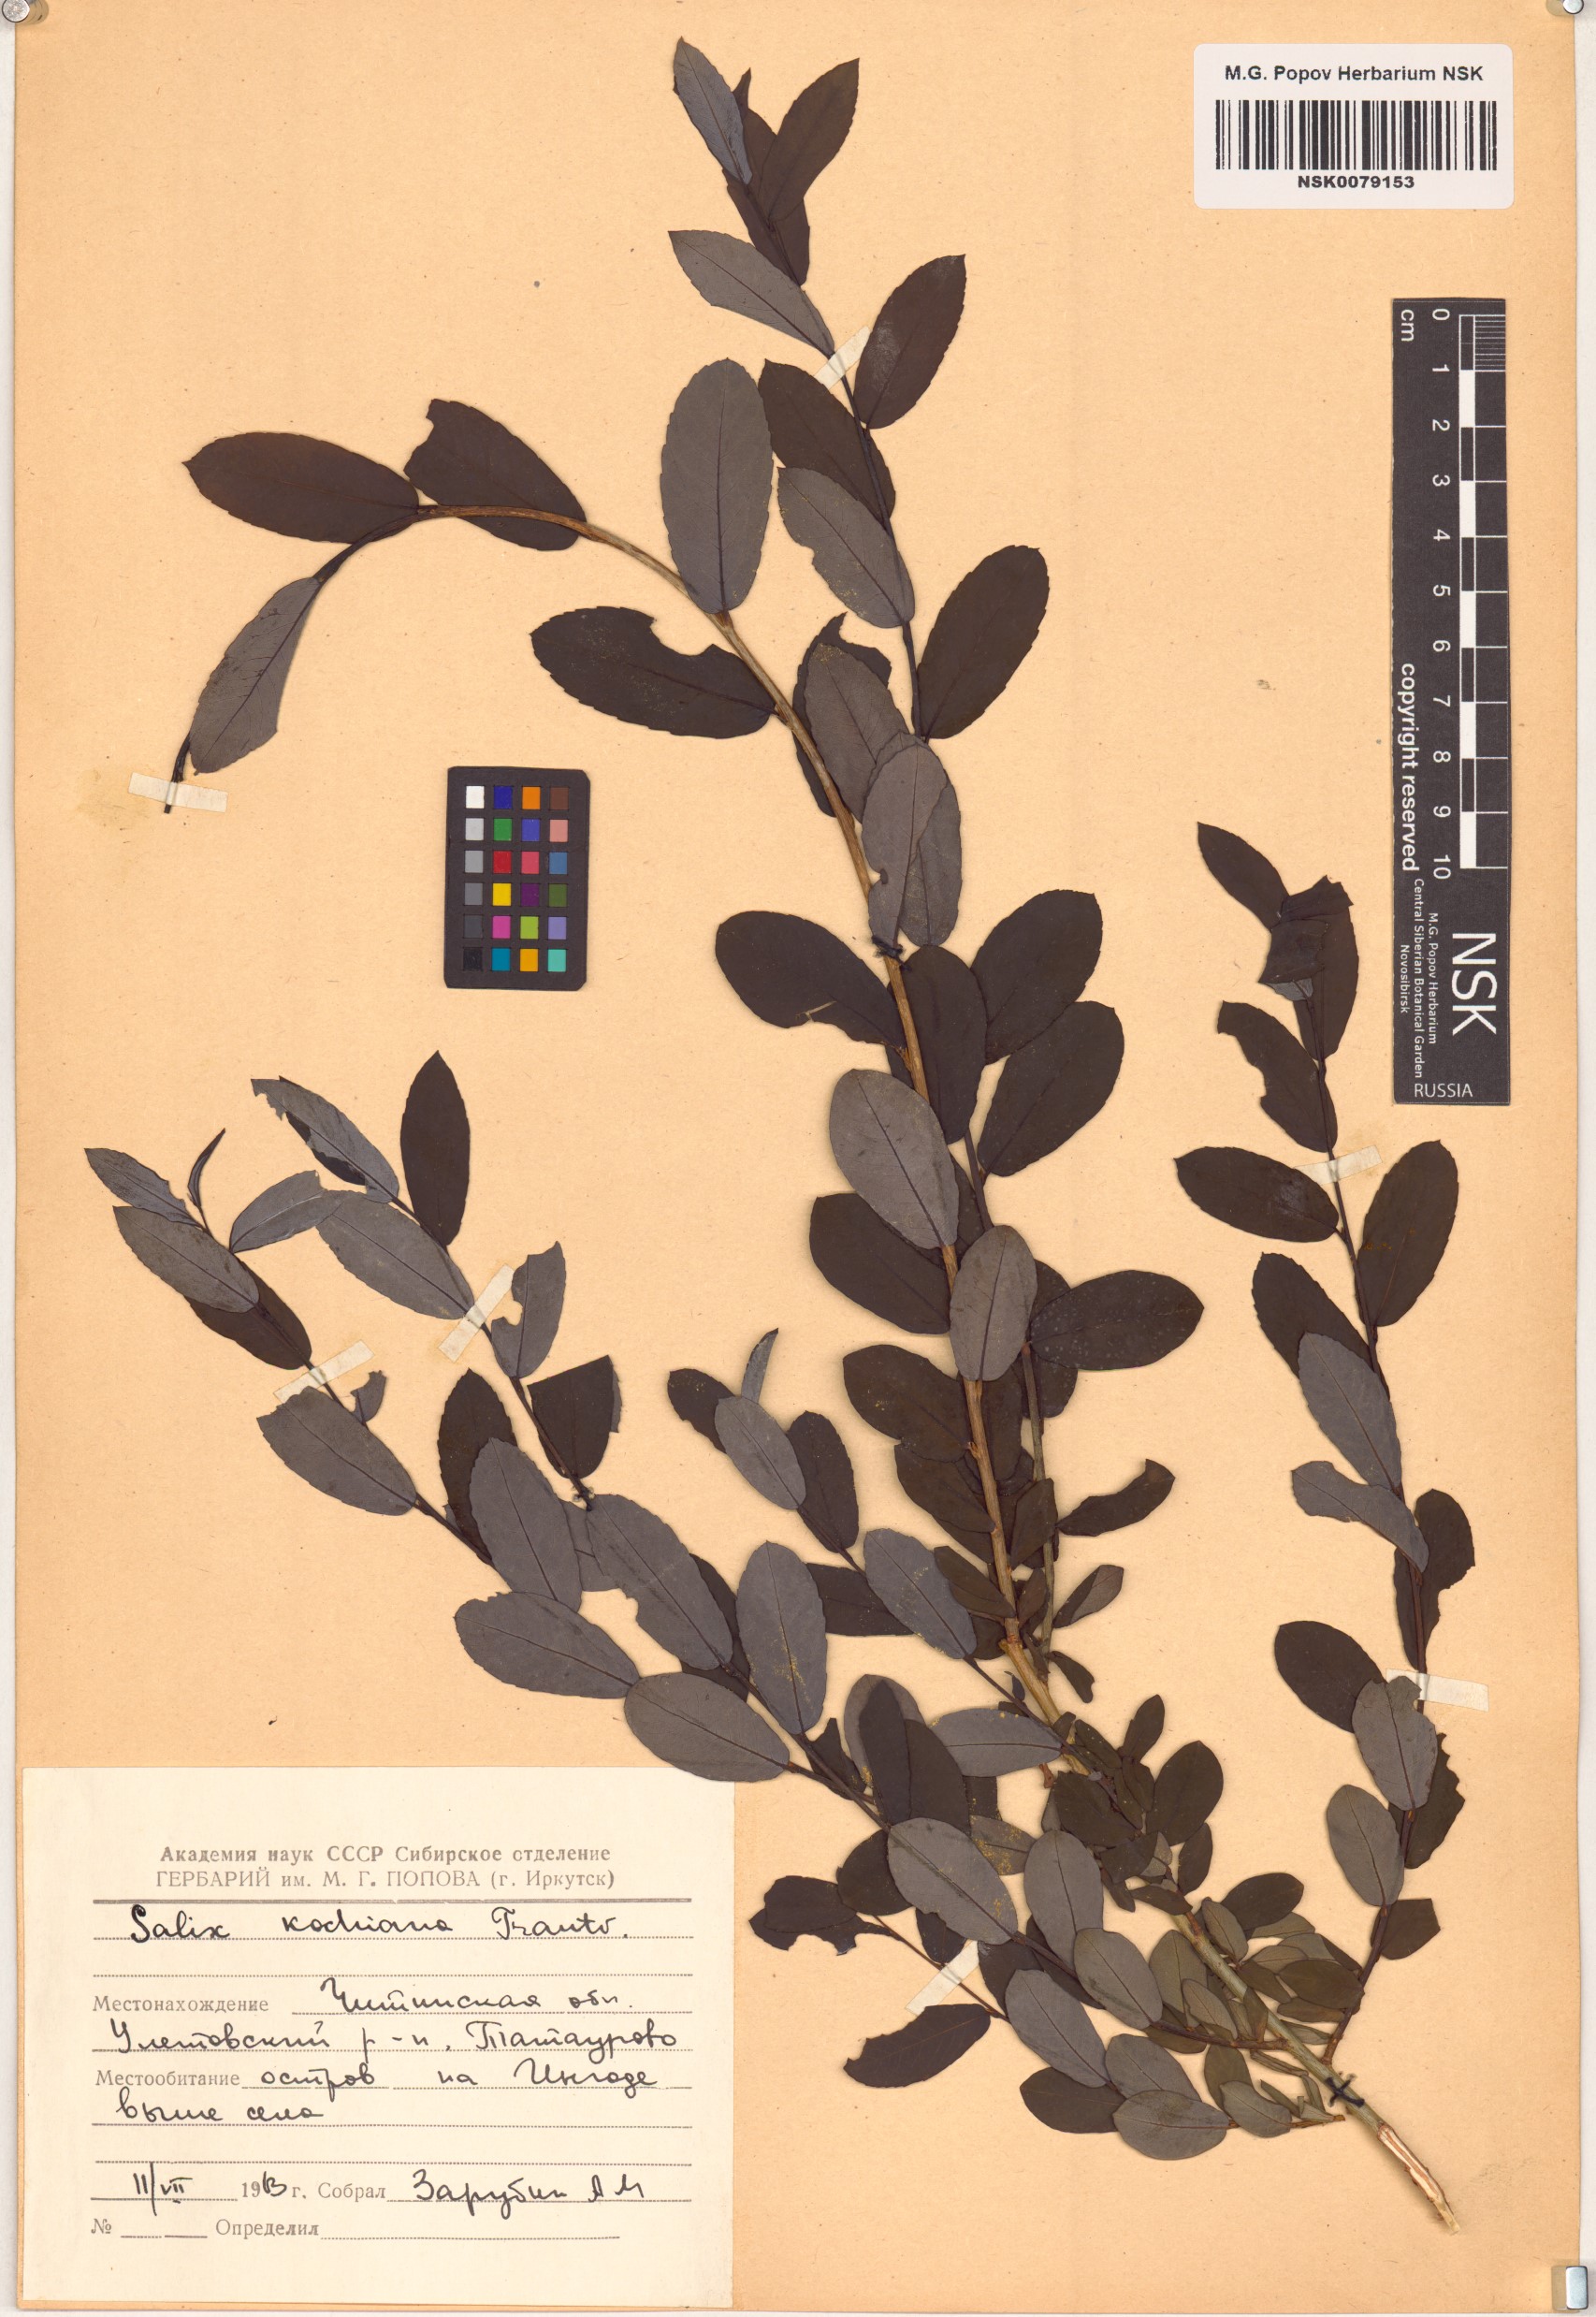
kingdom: Plantae
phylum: Tracheophyta
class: Magnoliopsida
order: Malpighiales
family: Salicaceae
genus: Salix
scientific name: Salix kochiana
